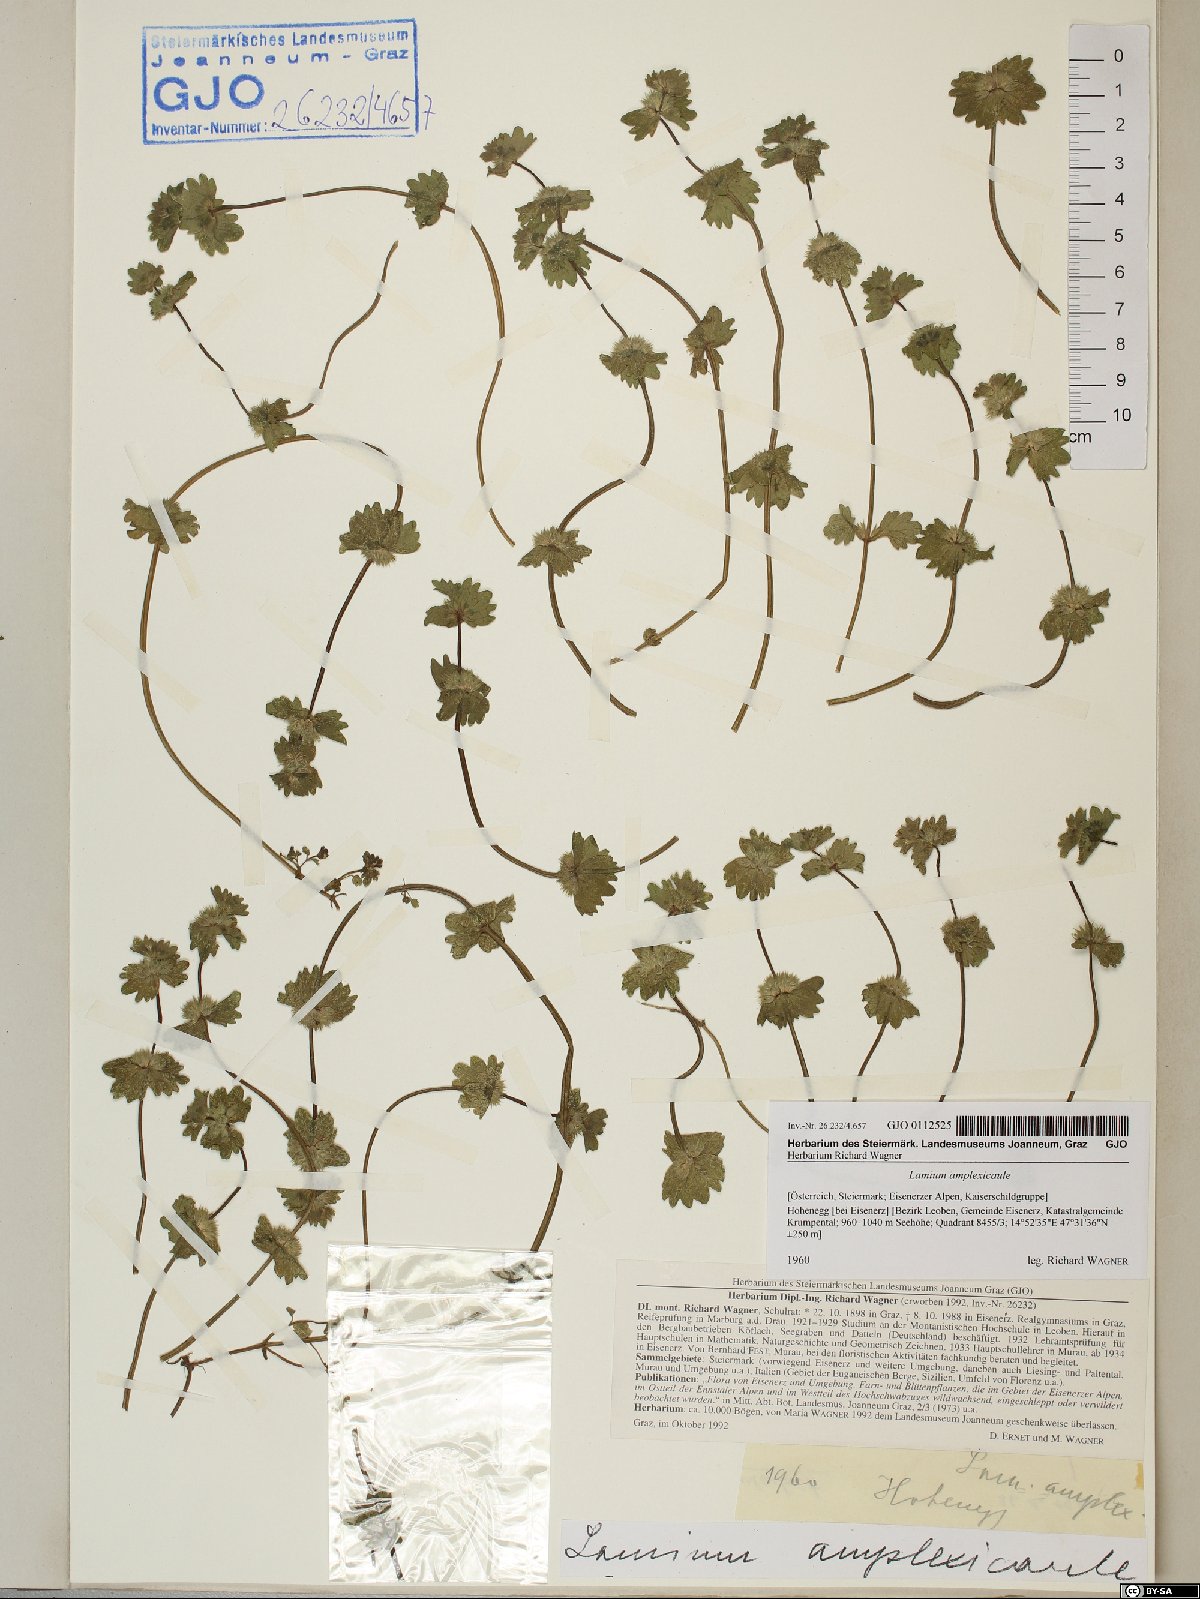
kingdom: Plantae
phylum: Tracheophyta
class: Magnoliopsida
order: Lamiales
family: Lamiaceae
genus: Lamium
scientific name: Lamium amplexicaule
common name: Henbit dead-nettle
